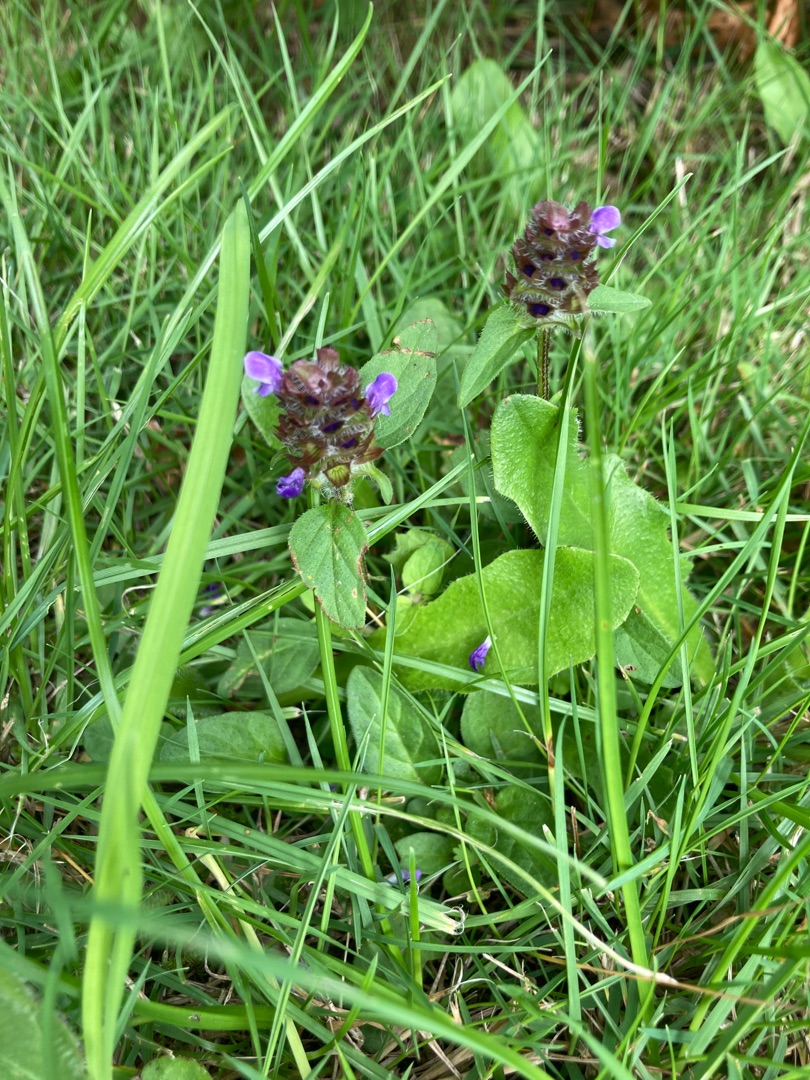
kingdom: Plantae
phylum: Tracheophyta
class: Magnoliopsida
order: Lamiales
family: Lamiaceae
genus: Prunella
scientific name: Prunella vulgaris
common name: Almindelig brunelle
